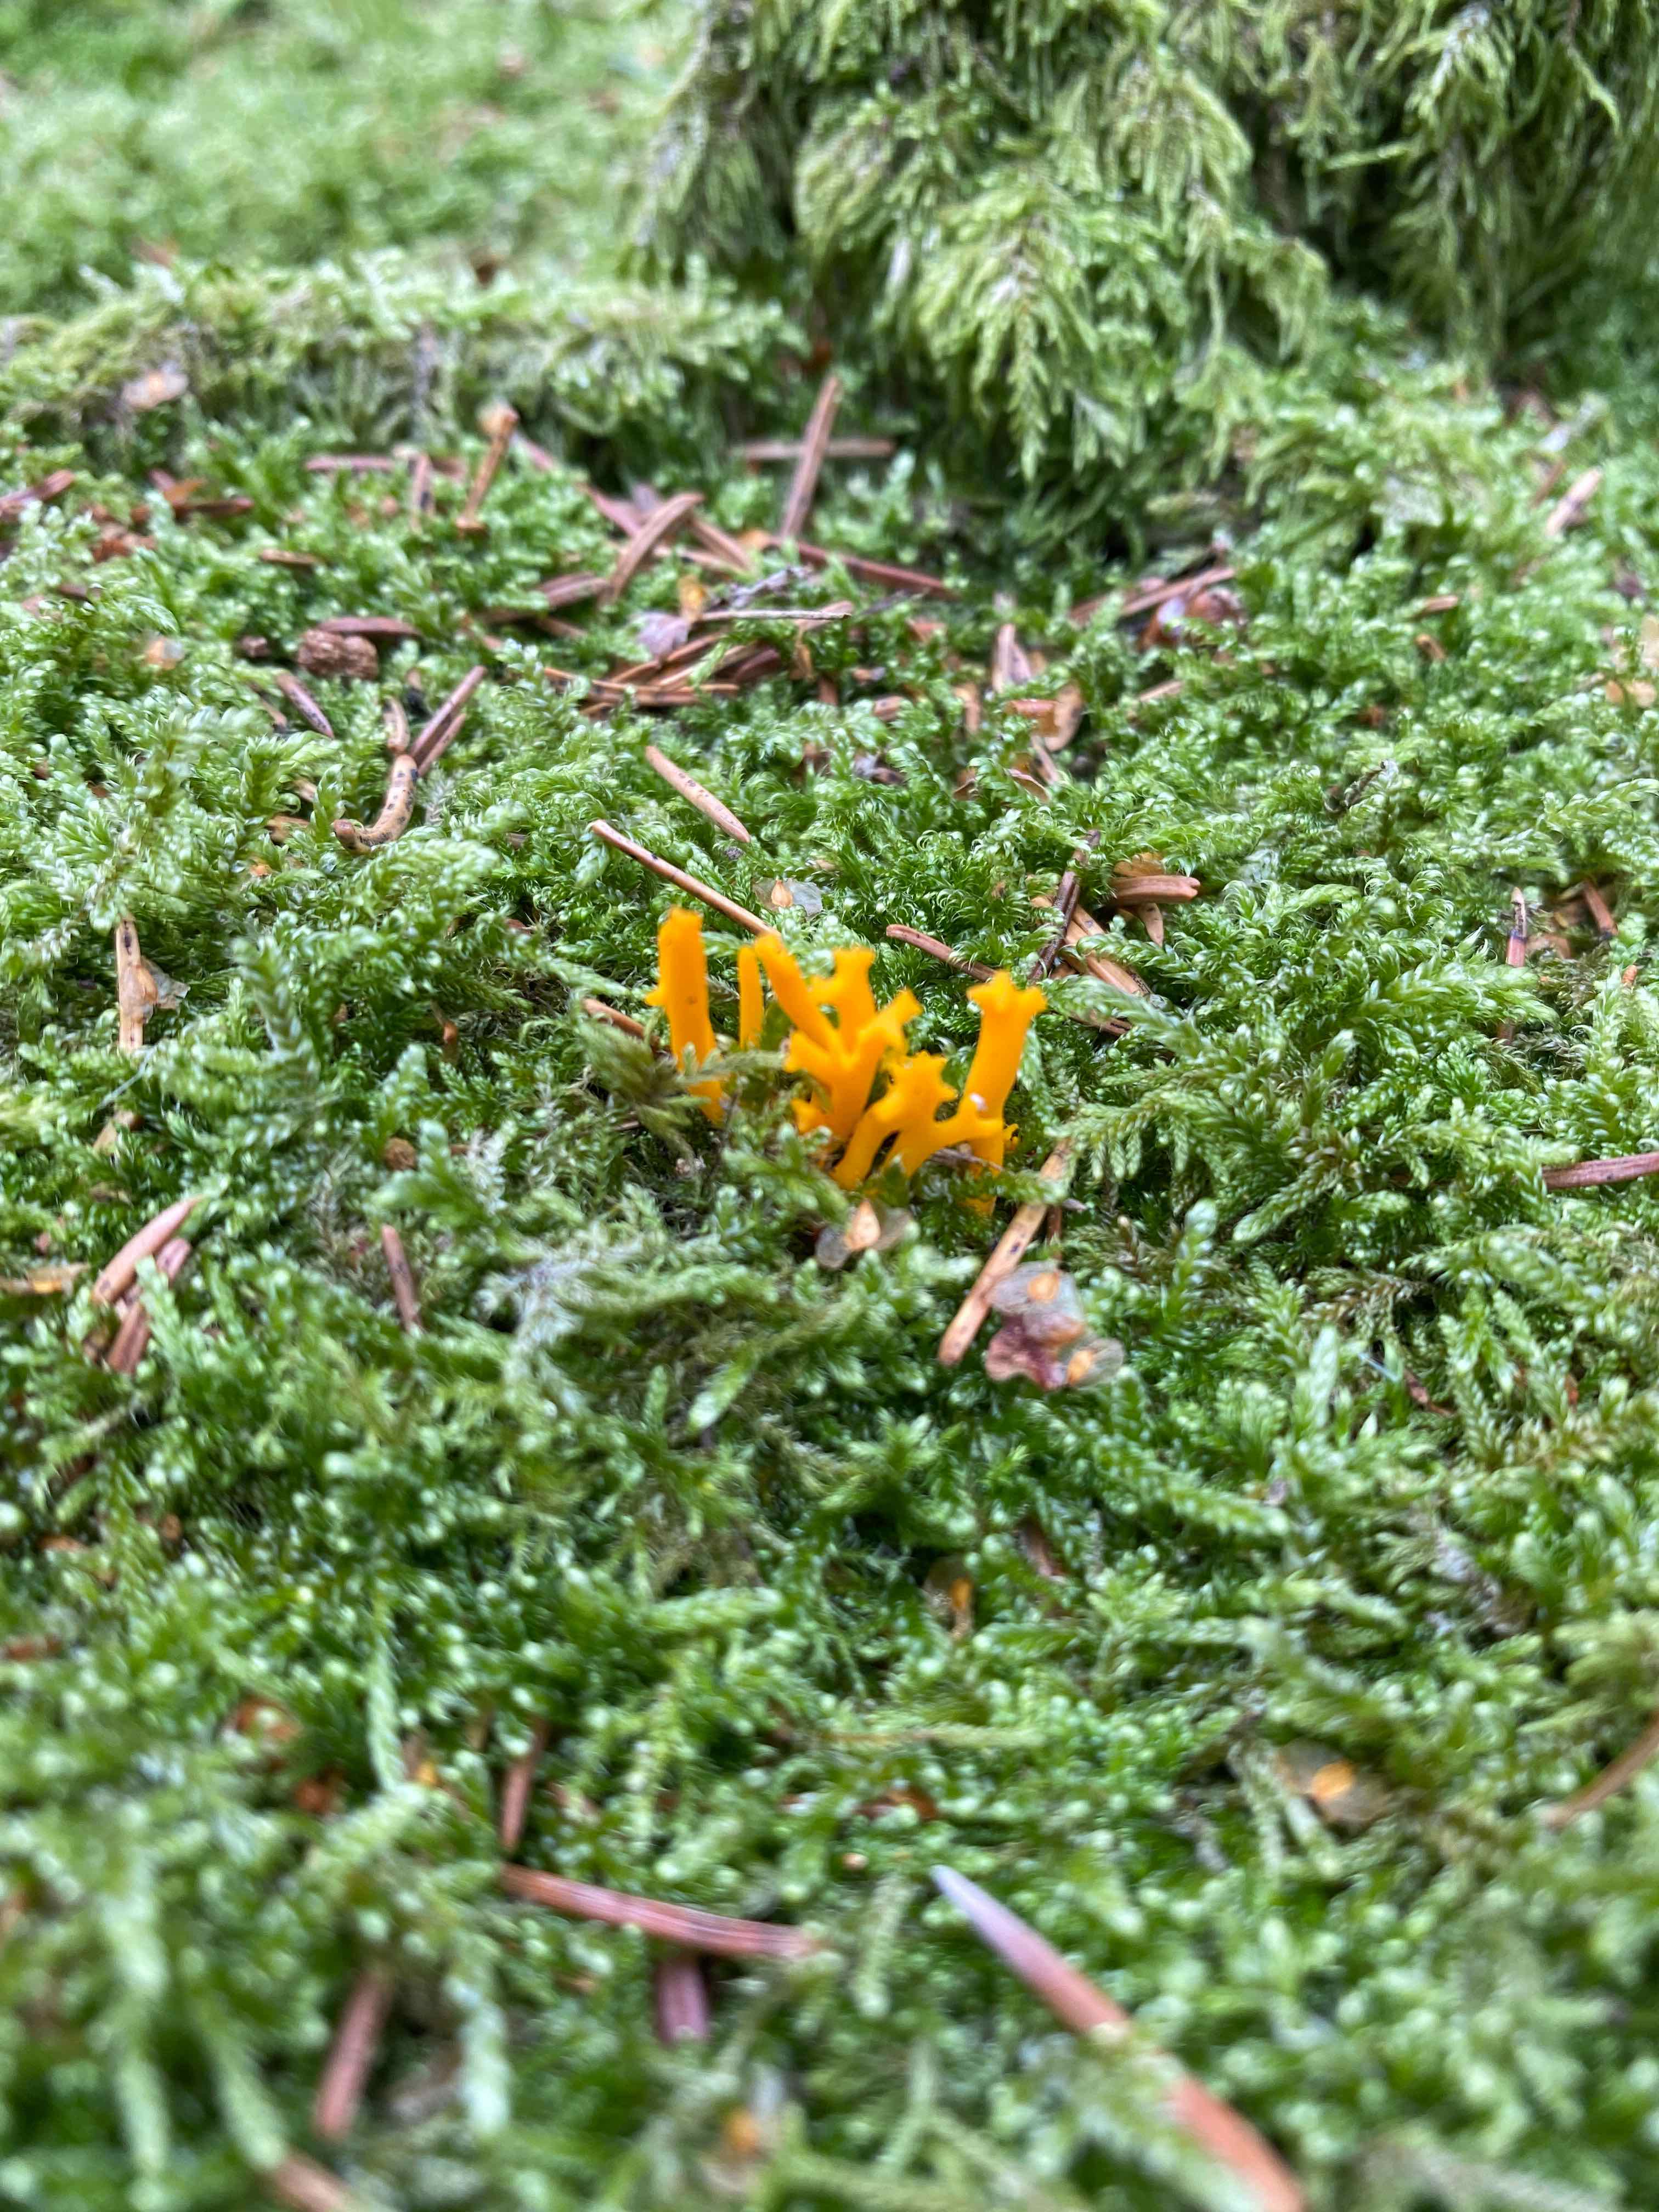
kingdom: Fungi
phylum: Basidiomycota
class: Dacrymycetes
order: Dacrymycetales
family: Dacrymycetaceae
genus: Calocera
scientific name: Calocera viscosa
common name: almindelig guldgaffel
